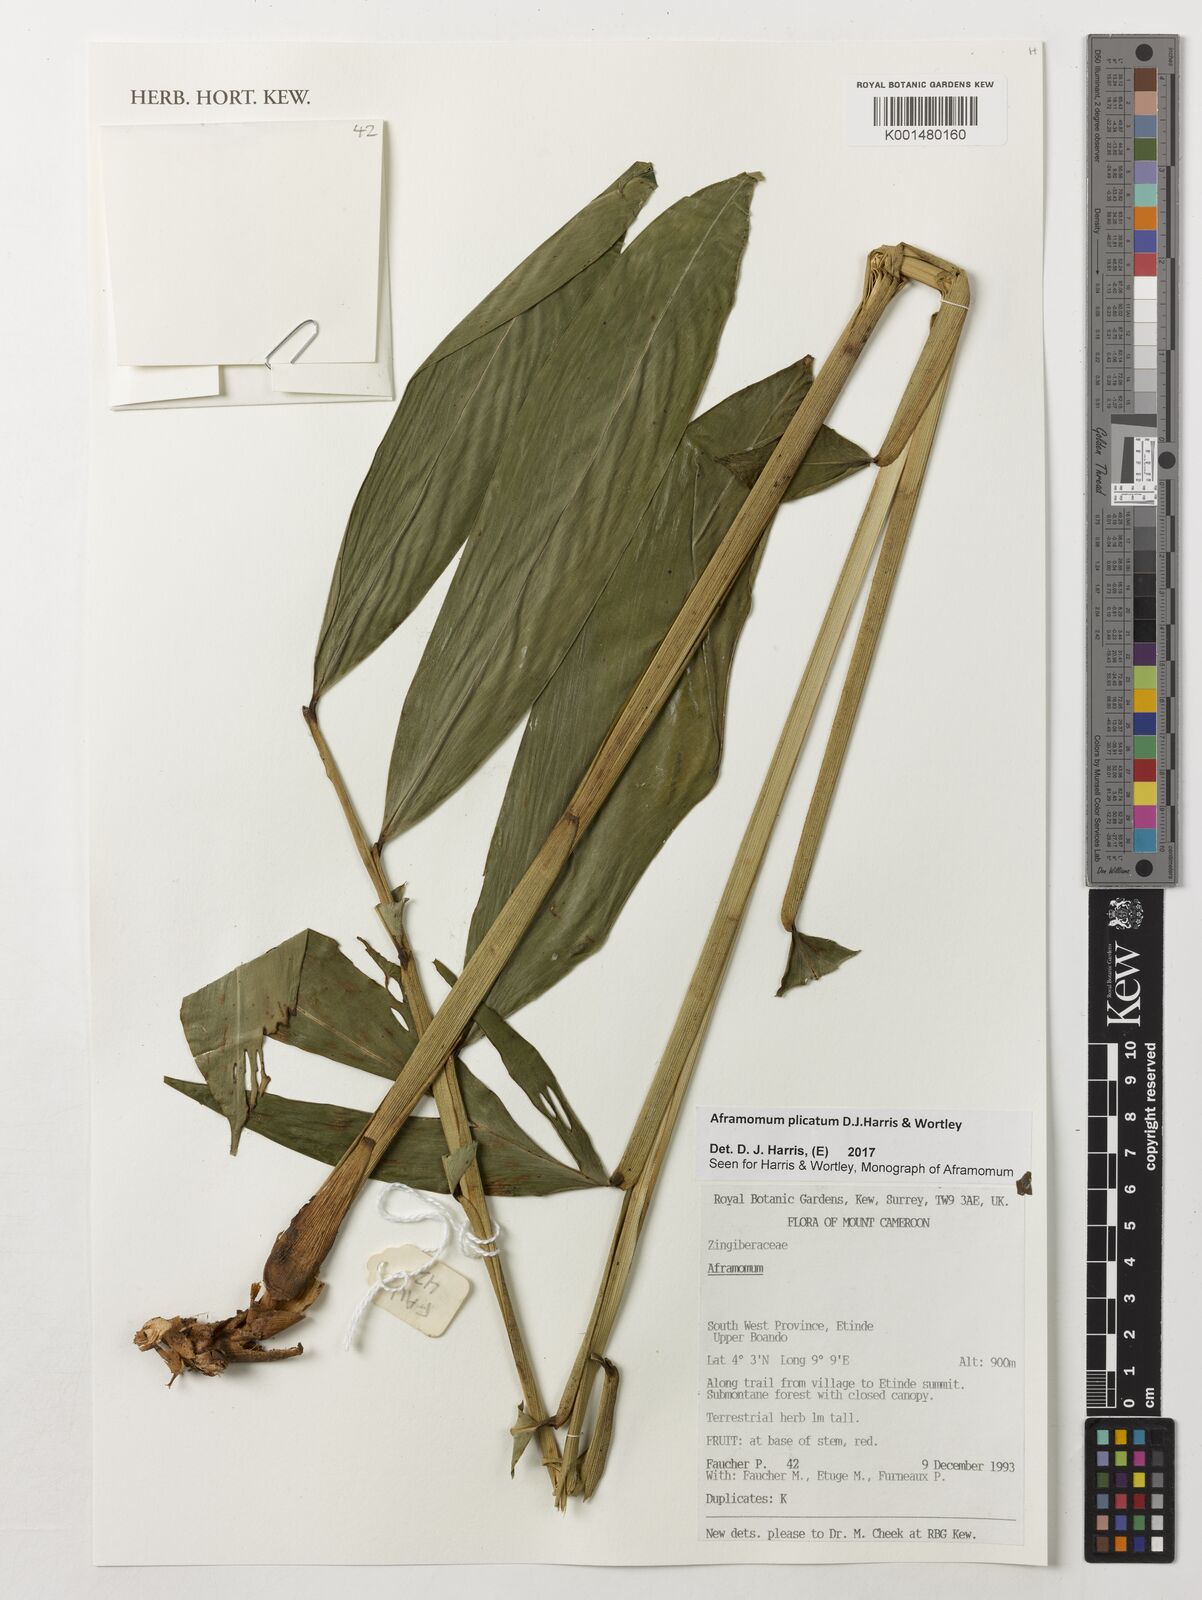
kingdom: Plantae
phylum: Tracheophyta
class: Liliopsida
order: Zingiberales
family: Zingiberaceae
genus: Aframomum
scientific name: Aframomum plicatum
